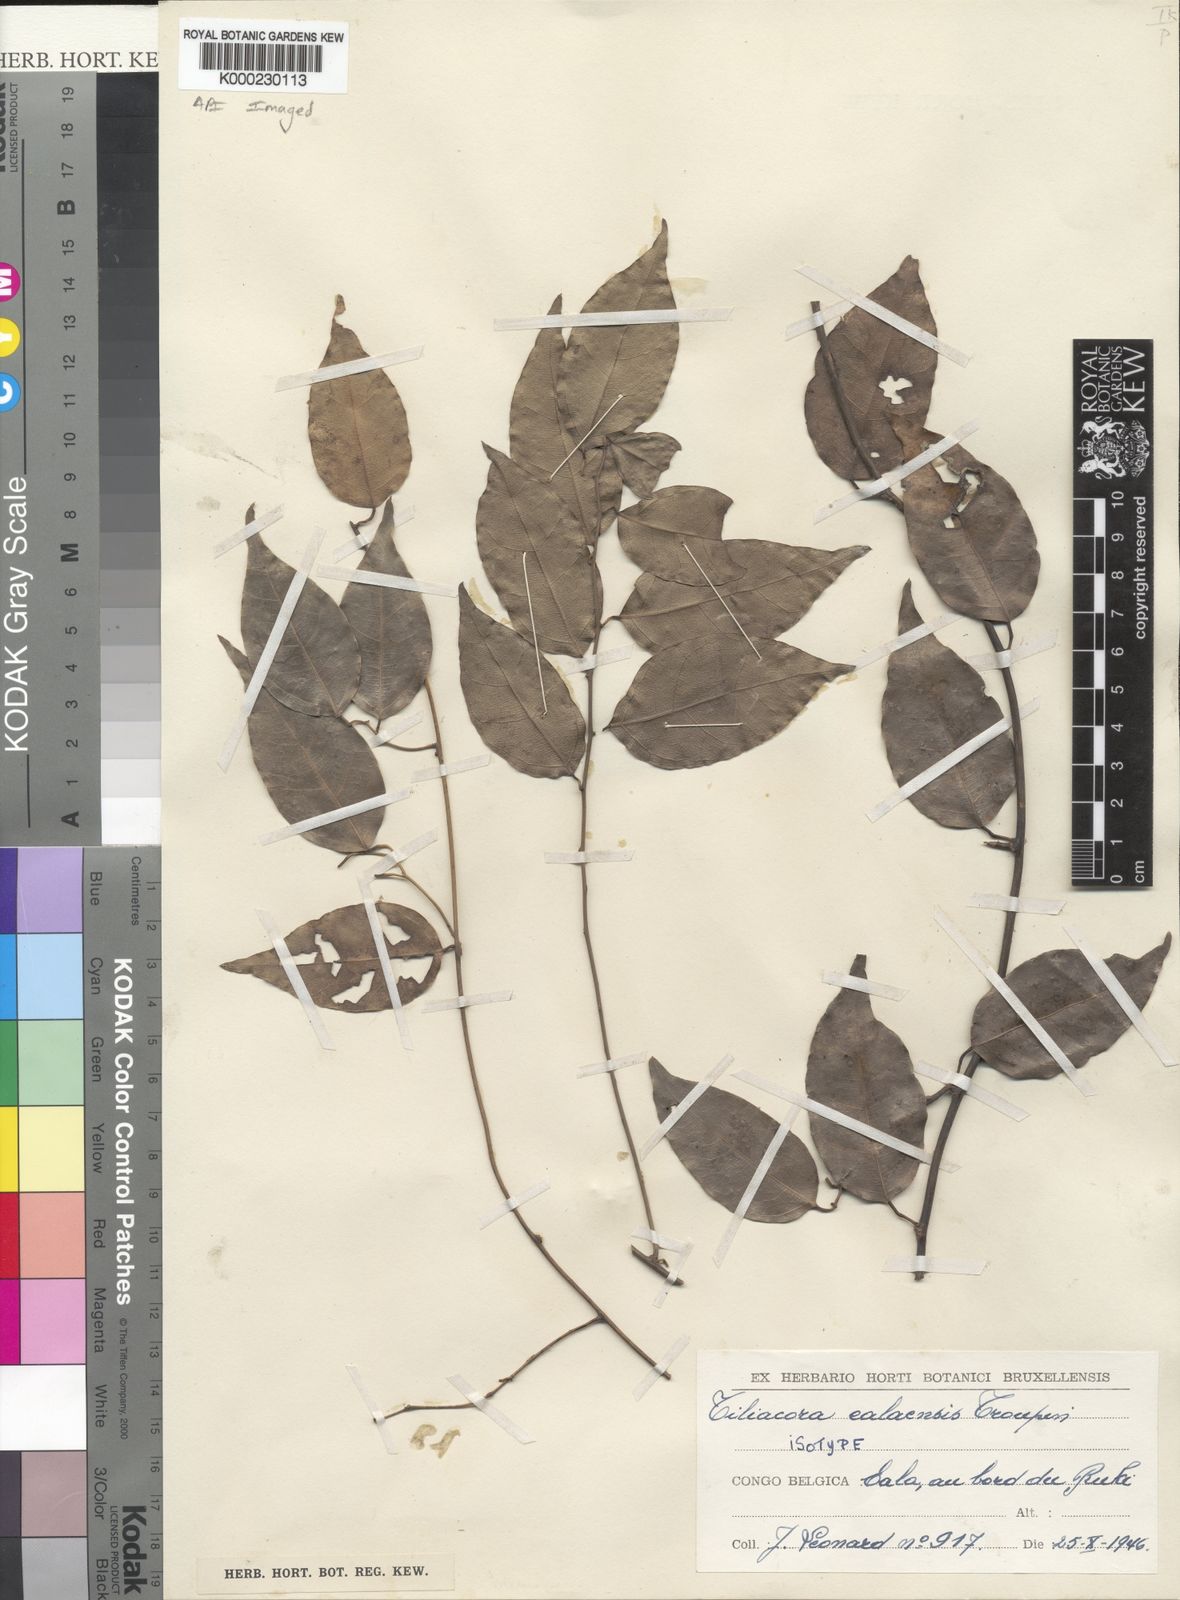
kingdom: Plantae
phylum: Tracheophyta
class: Magnoliopsida
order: Ranunculales
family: Menispermaceae
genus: Tiliacora
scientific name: Tiliacora ealaensis
